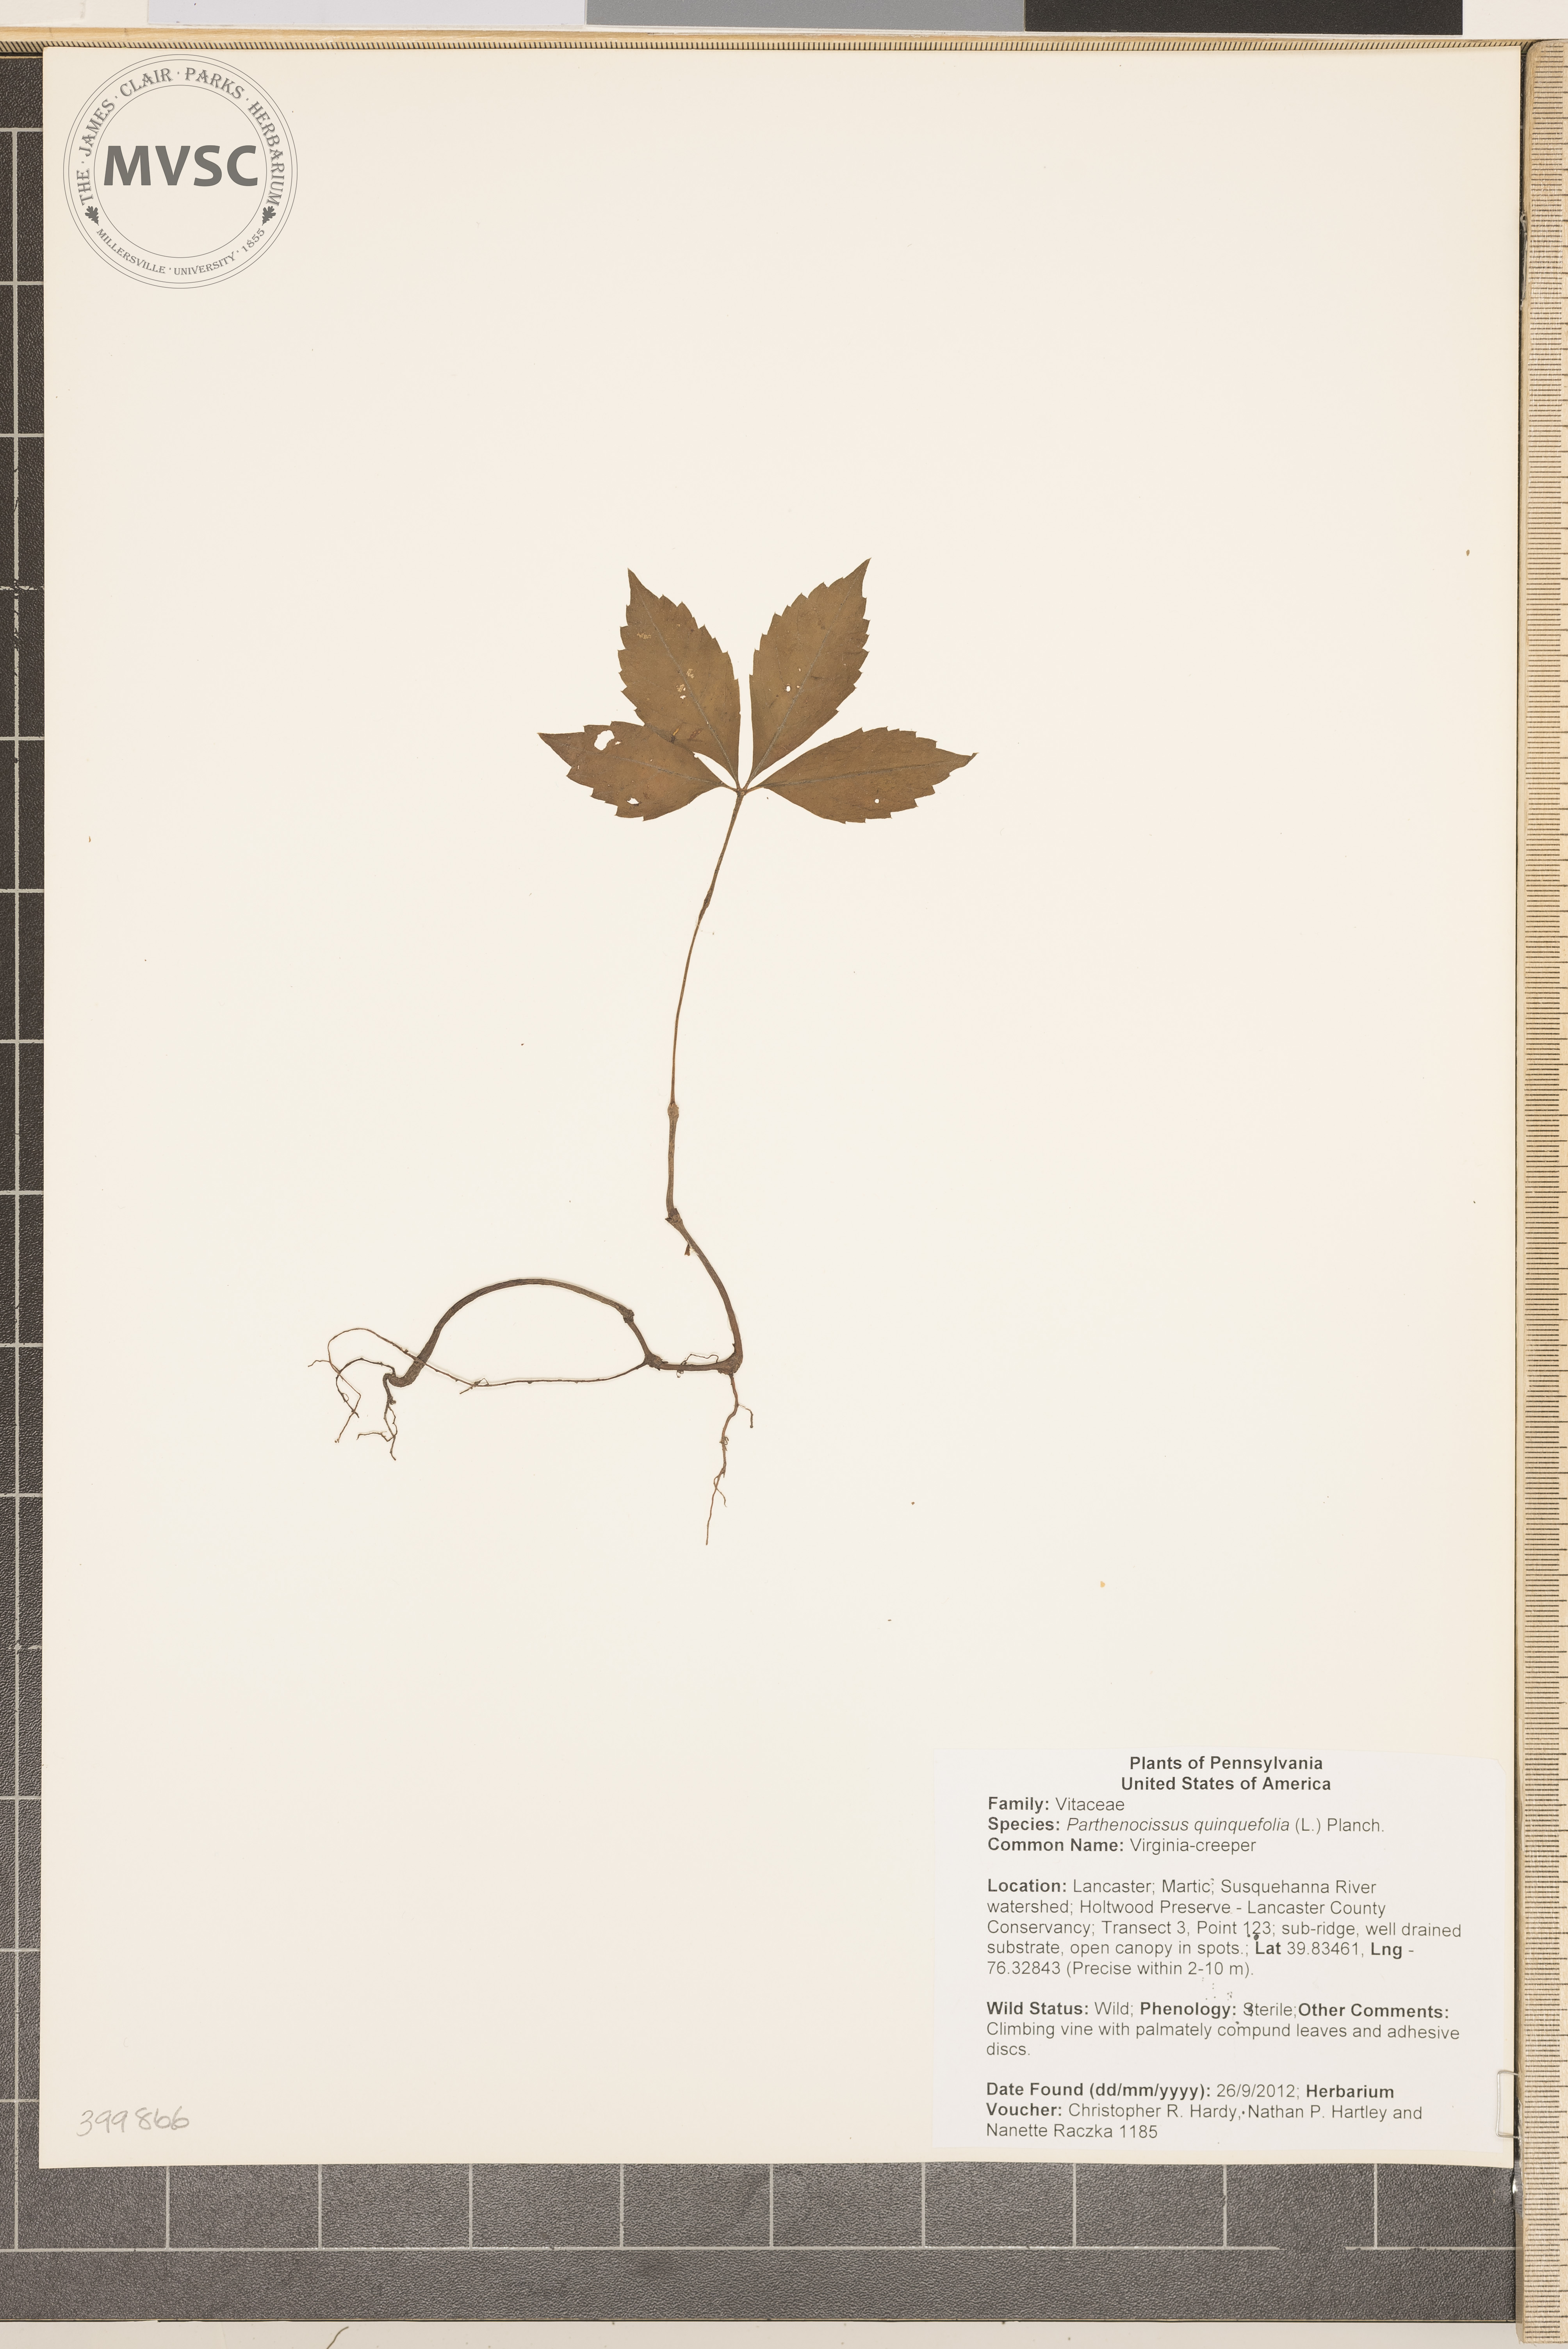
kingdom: Plantae
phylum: Tracheophyta
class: Magnoliopsida
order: Vitales
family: Vitaceae
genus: Parthenocissus
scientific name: Parthenocissus quinquefolia
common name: Virginia-creeper
